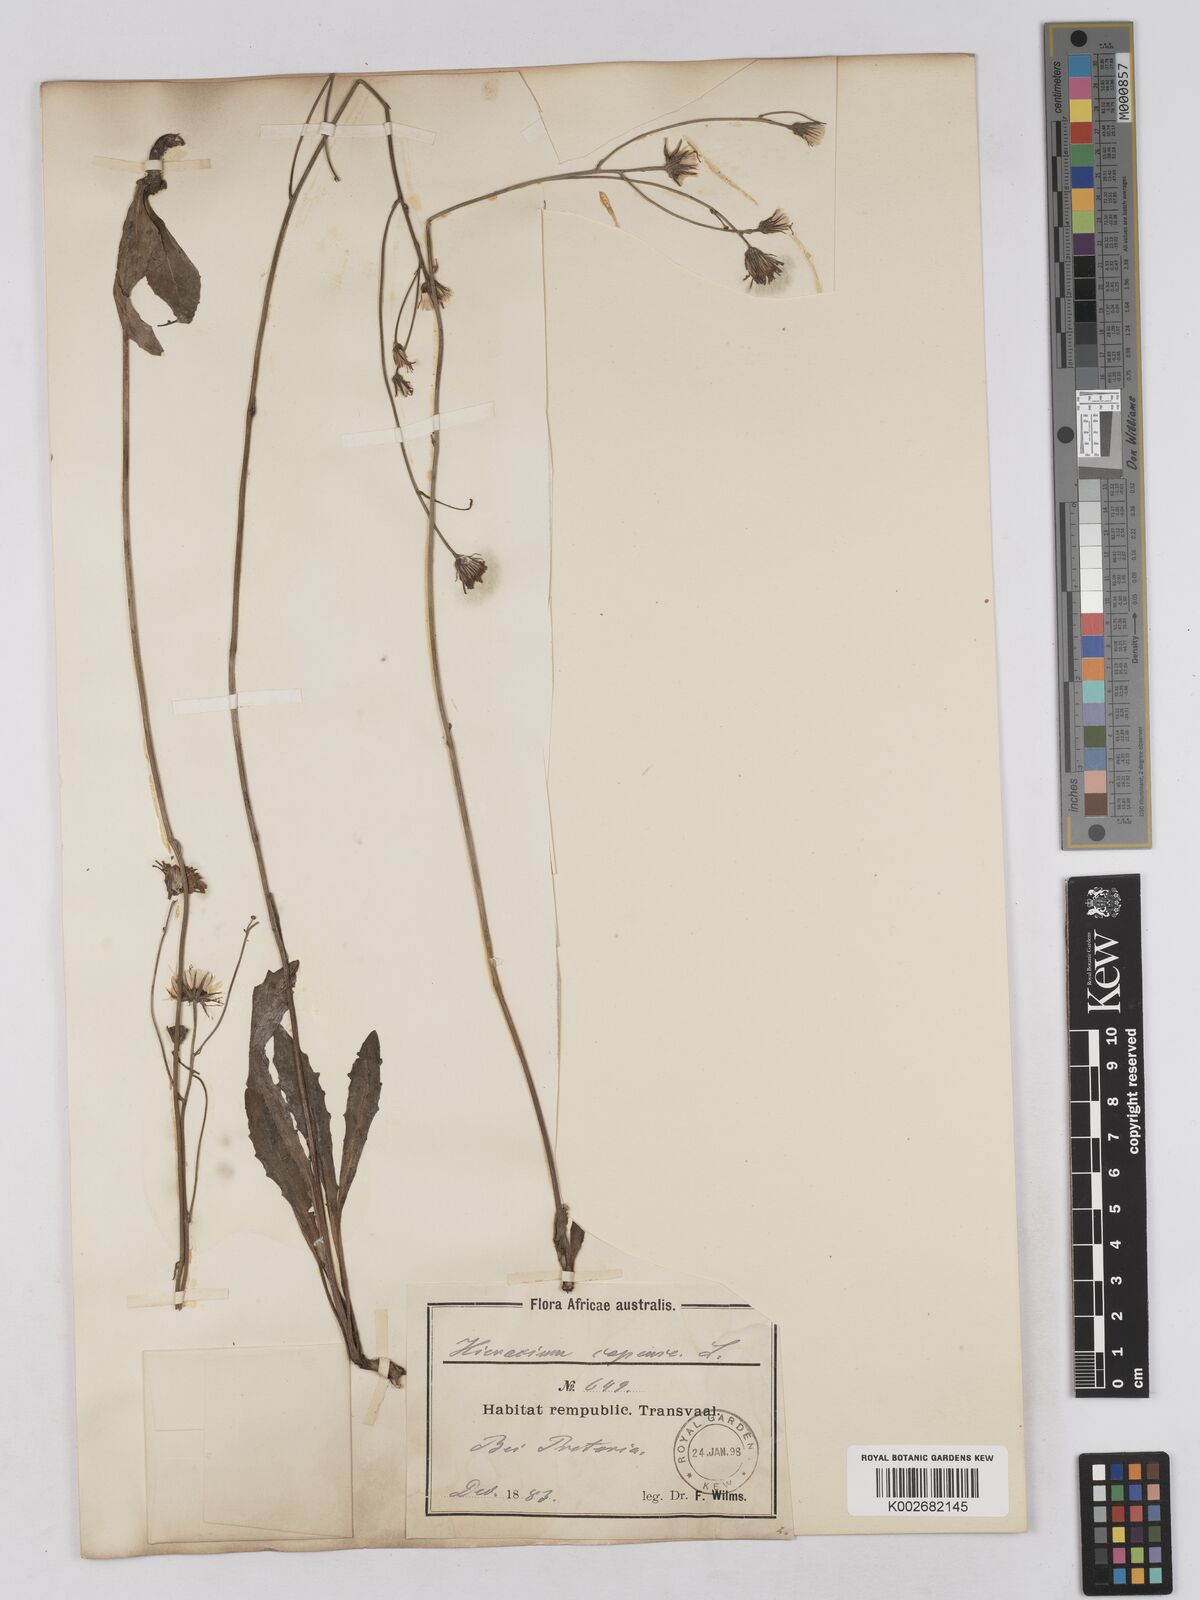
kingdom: Plantae
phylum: Tracheophyta
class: Magnoliopsida
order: Asterales
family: Asteraceae
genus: Tolpis
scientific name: Tolpis capensis
